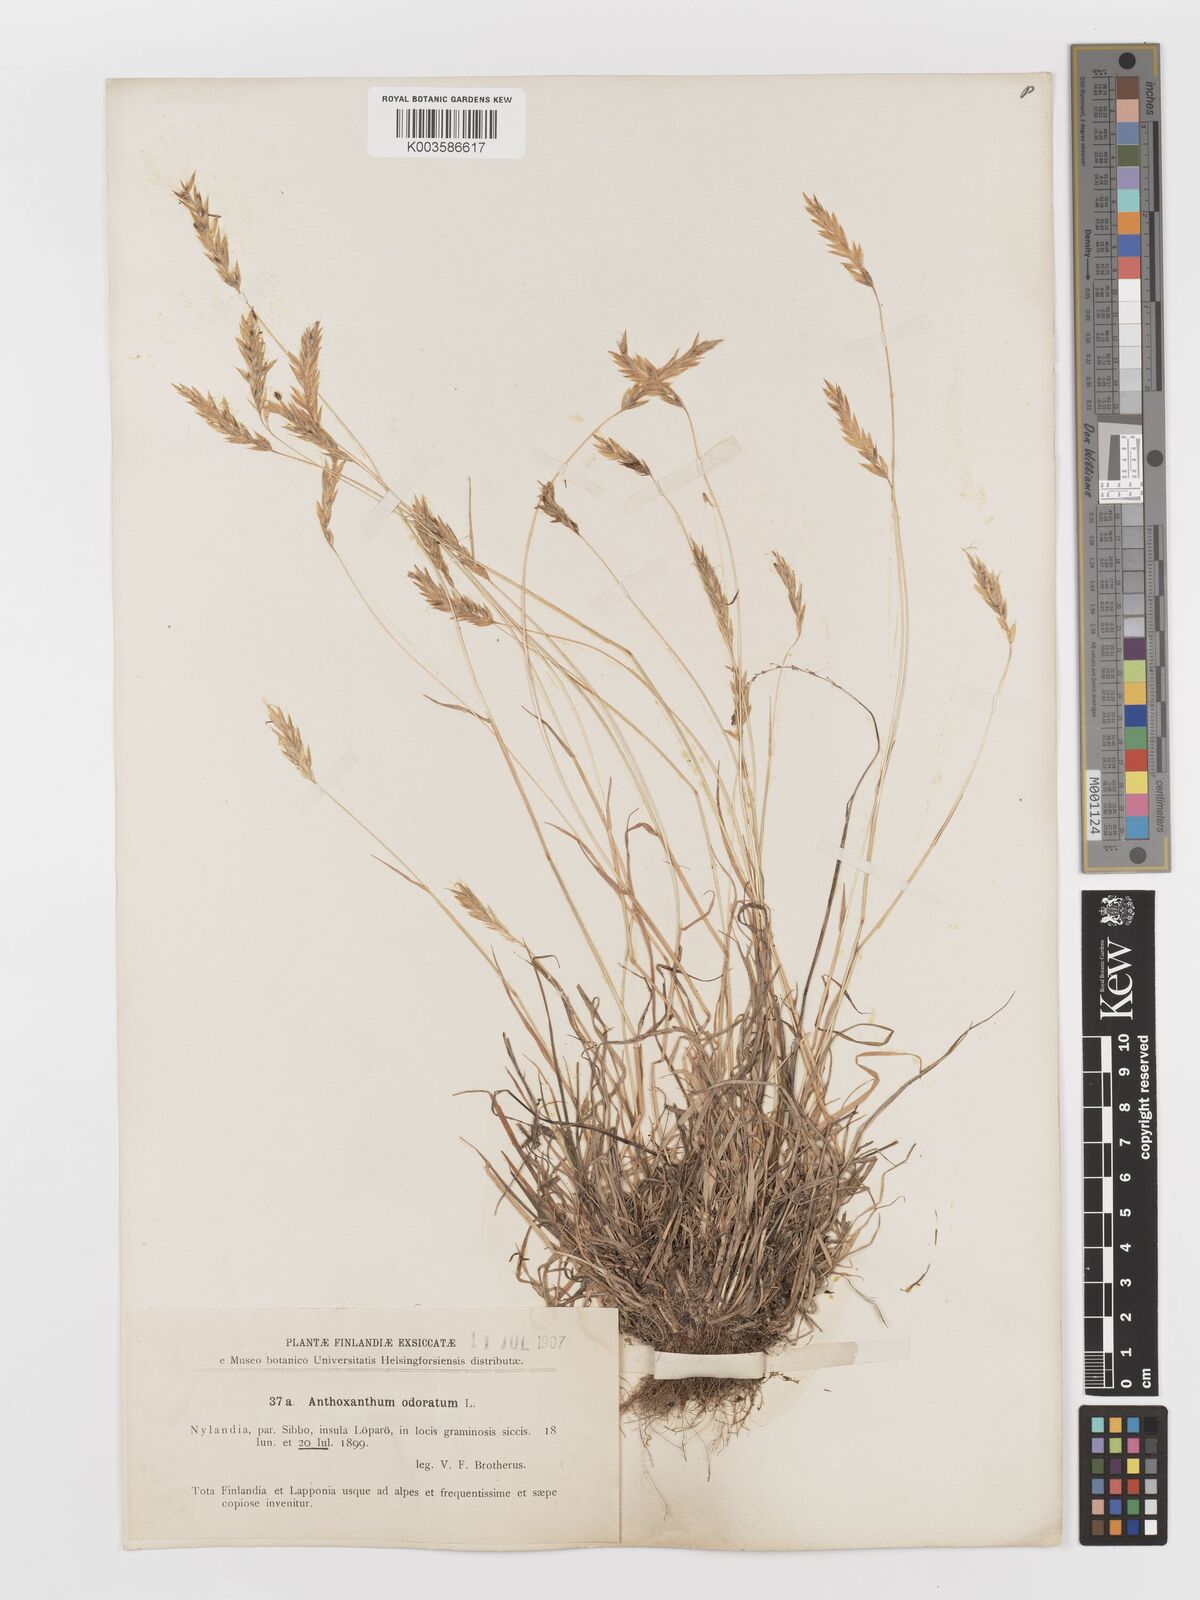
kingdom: Plantae
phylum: Tracheophyta
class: Liliopsida
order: Poales
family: Poaceae
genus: Anthoxanthum
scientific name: Anthoxanthum odoratum
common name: Sweet vernalgrass
